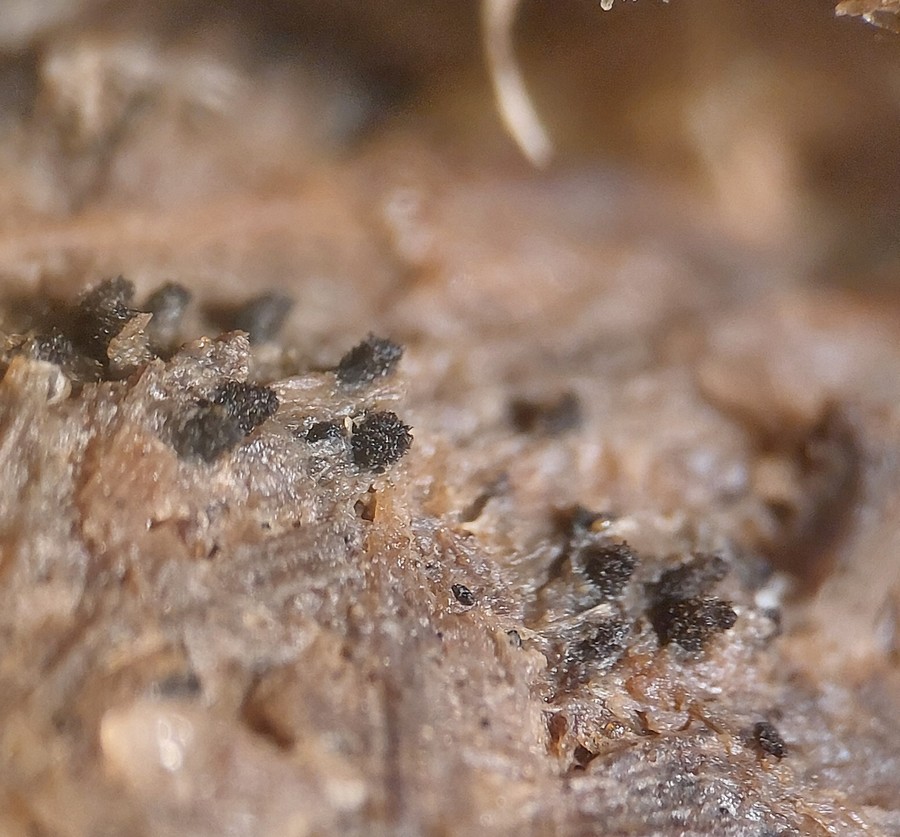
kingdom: Fungi
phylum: Ascomycota
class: Sordariomycetes
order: Sordariales
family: Lasiosphaeriaceae
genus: Schizothecium
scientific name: Schizothecium hispidulum
